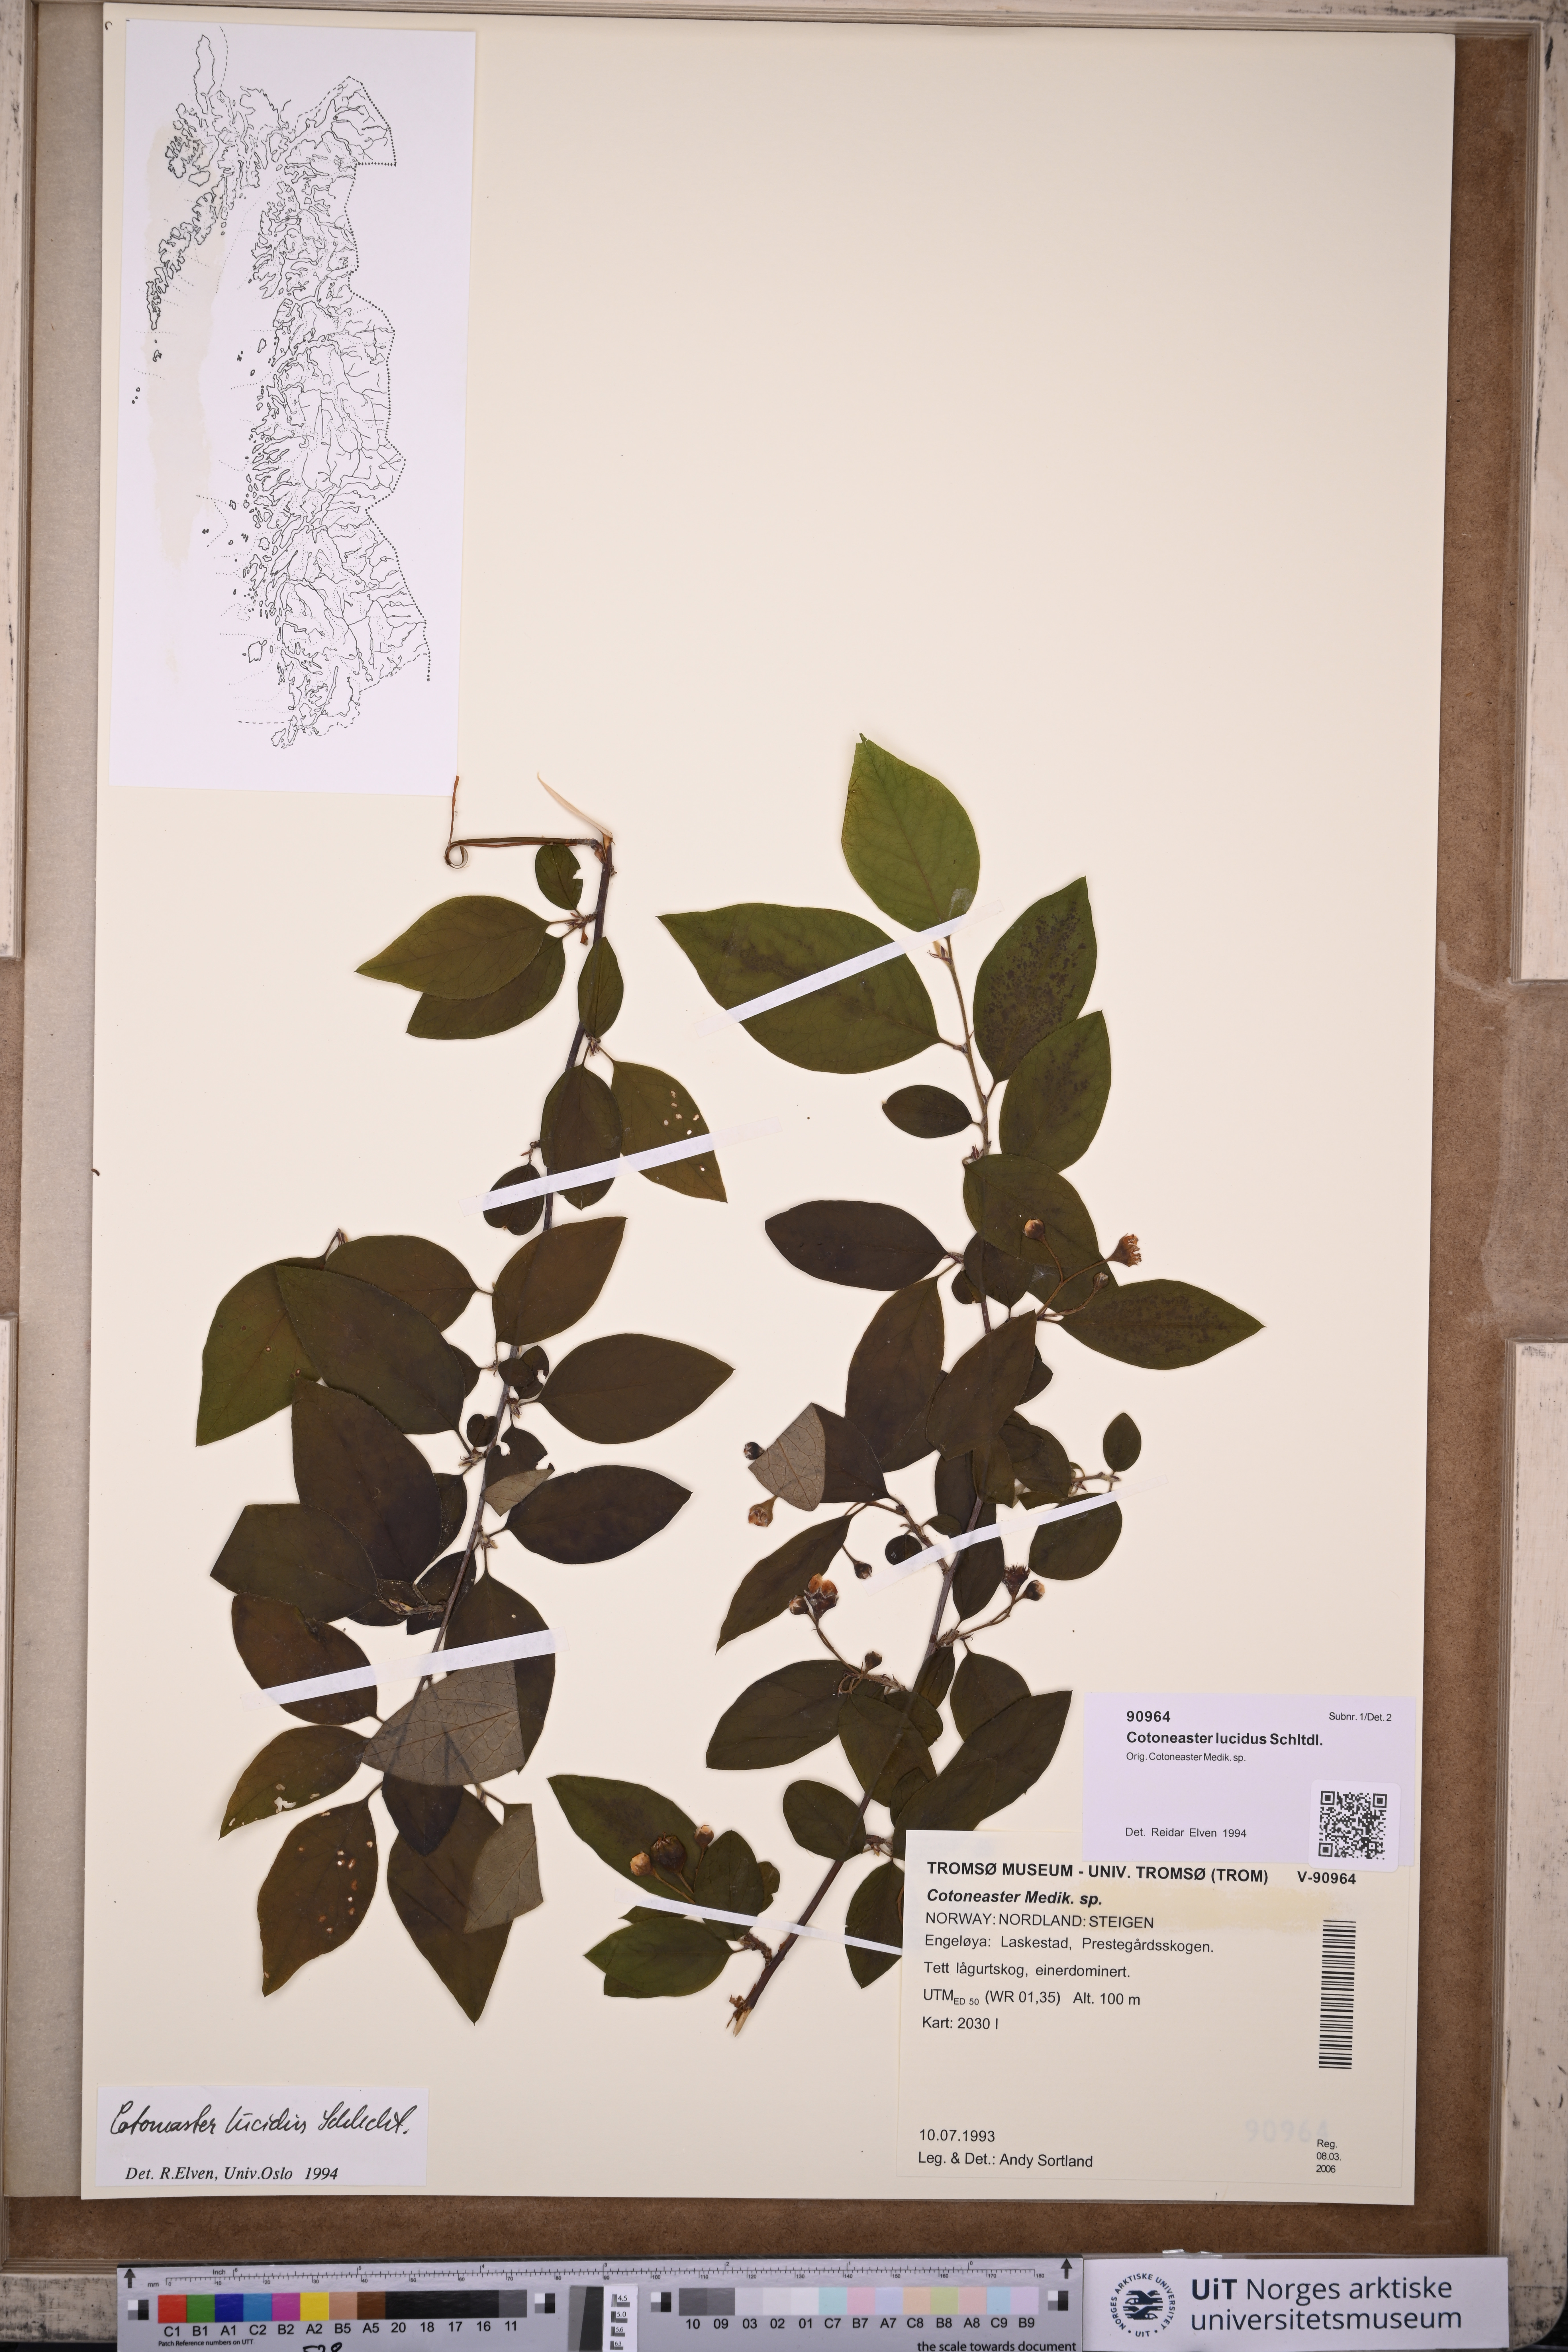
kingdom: Plantae
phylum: Tracheophyta
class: Magnoliopsida
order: Rosales
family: Rosaceae
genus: Cotoneaster
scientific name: Cotoneaster acutifolius
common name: Peking cotoneaster
